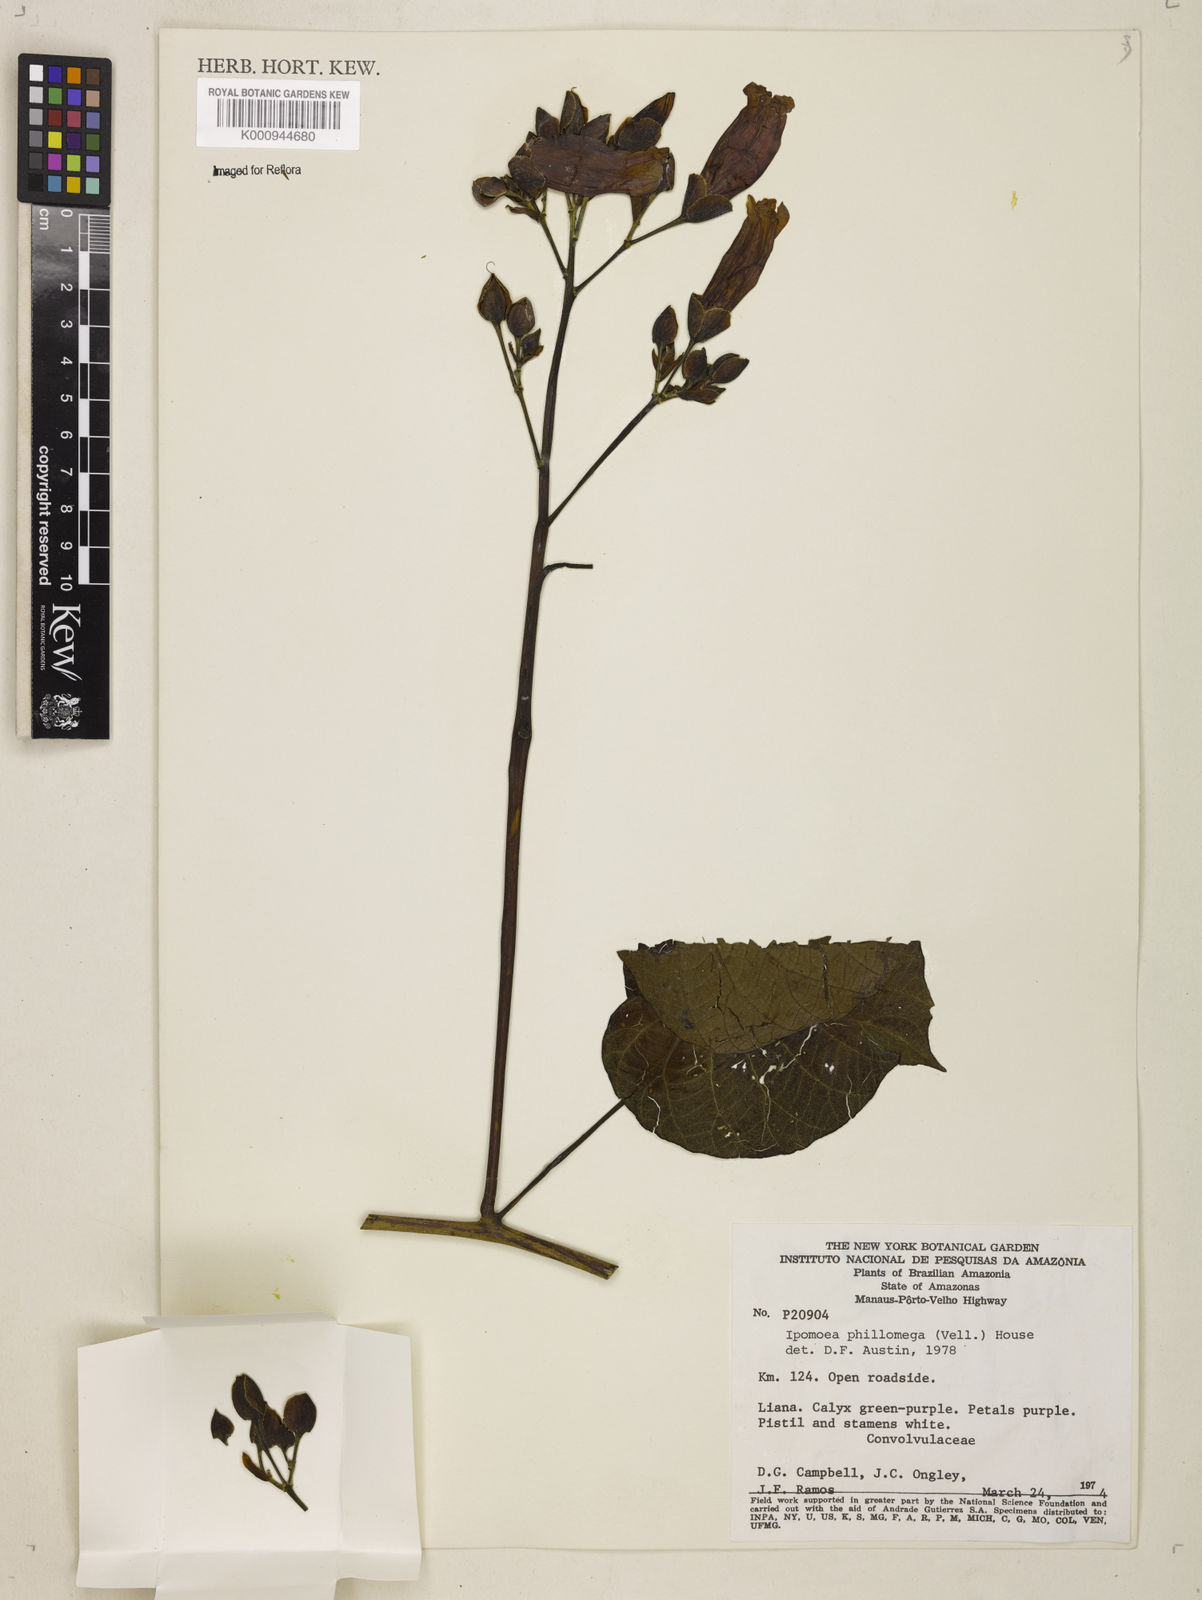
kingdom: Plantae
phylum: Tracheophyta
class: Magnoliopsida
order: Solanales
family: Convolvulaceae
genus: Ipomoea
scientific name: Ipomoea philomega
